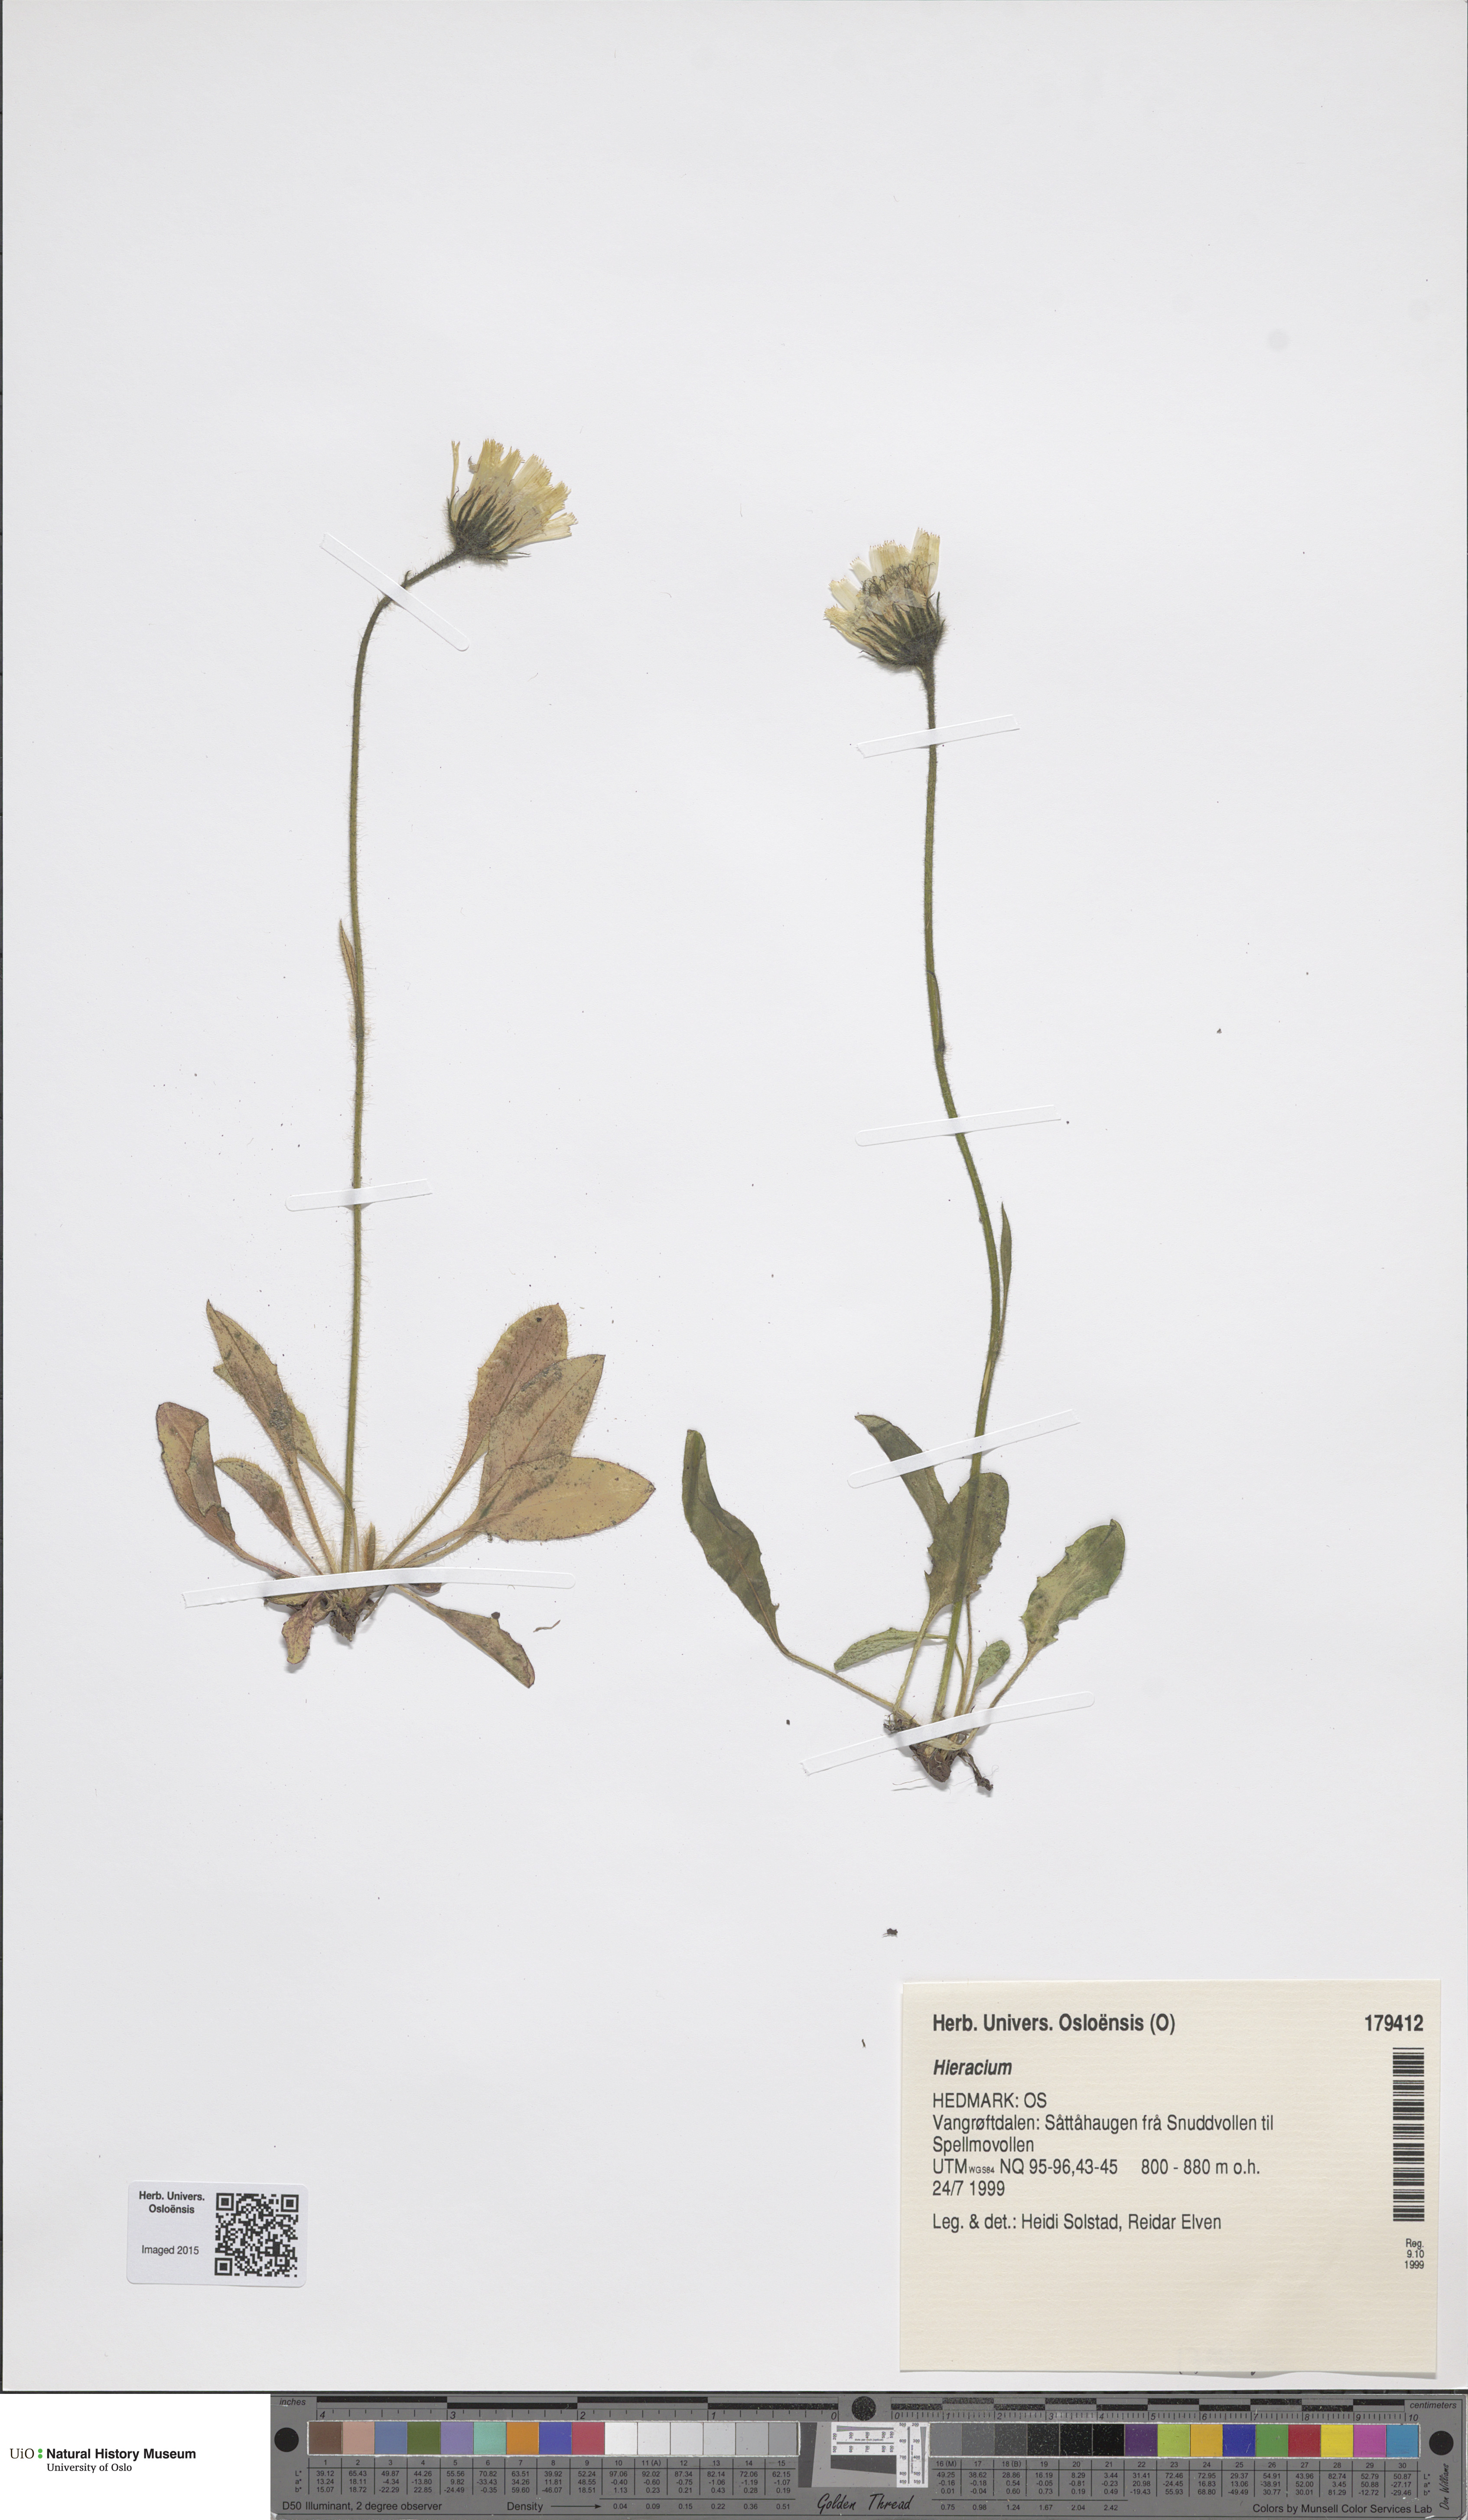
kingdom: Plantae
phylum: Tracheophyta
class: Magnoliopsida
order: Asterales
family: Asteraceae
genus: Hieracium
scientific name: Hieracium
